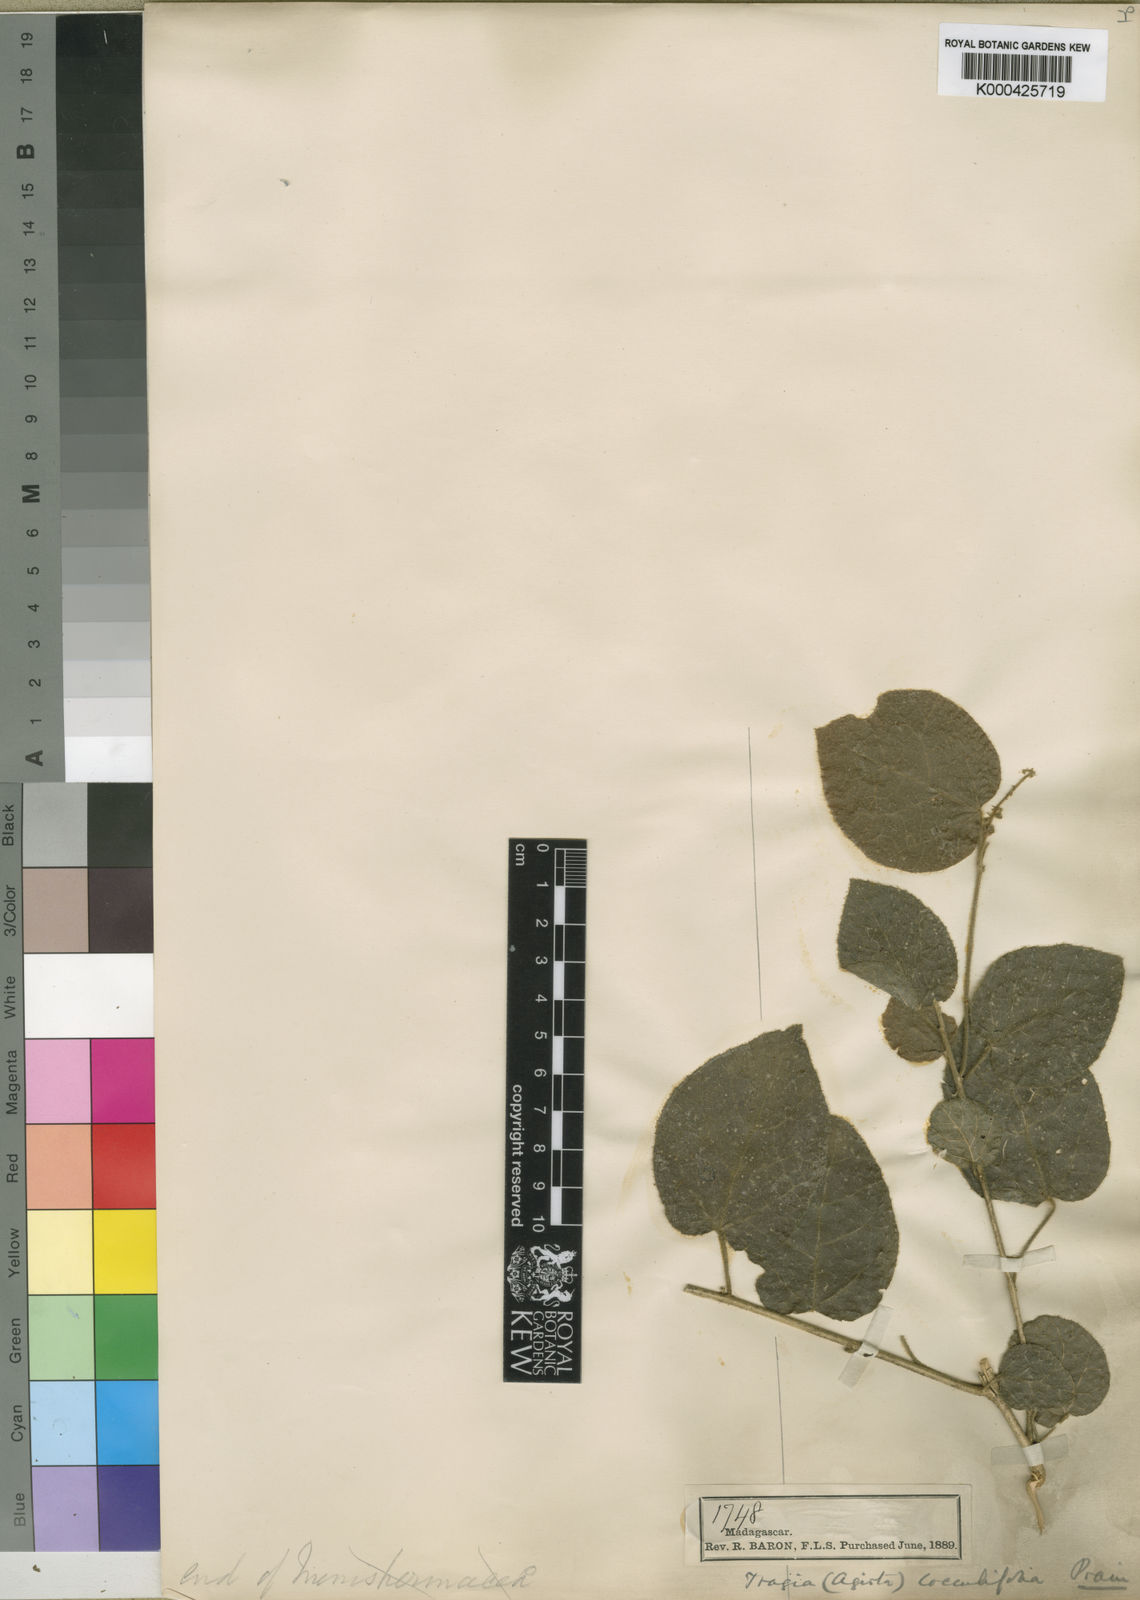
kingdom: Plantae
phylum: Tracheophyta
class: Magnoliopsida
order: Malpighiales
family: Euphorbiaceae
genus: Tragia
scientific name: Tragia cocculifolia
